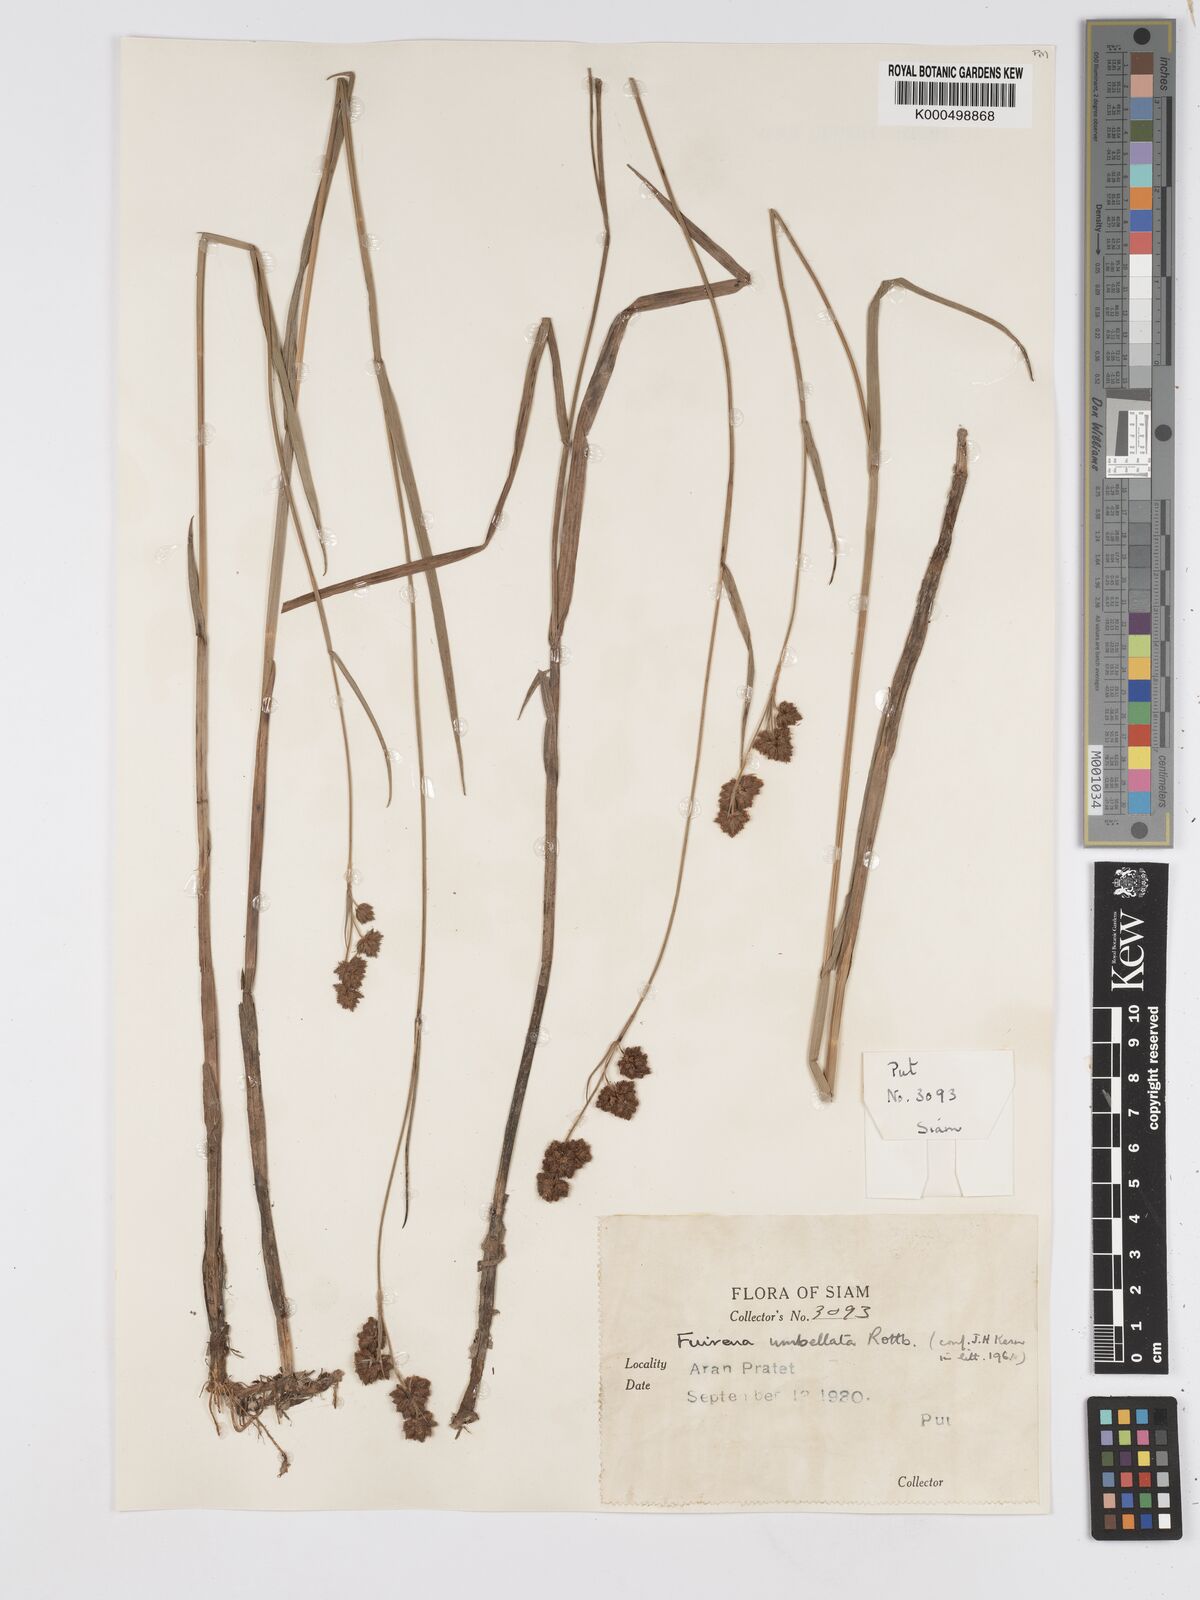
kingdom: Plantae
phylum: Tracheophyta
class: Liliopsida
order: Poales
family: Cyperaceae
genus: Fuirena
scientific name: Fuirena umbellata
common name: Yefen
